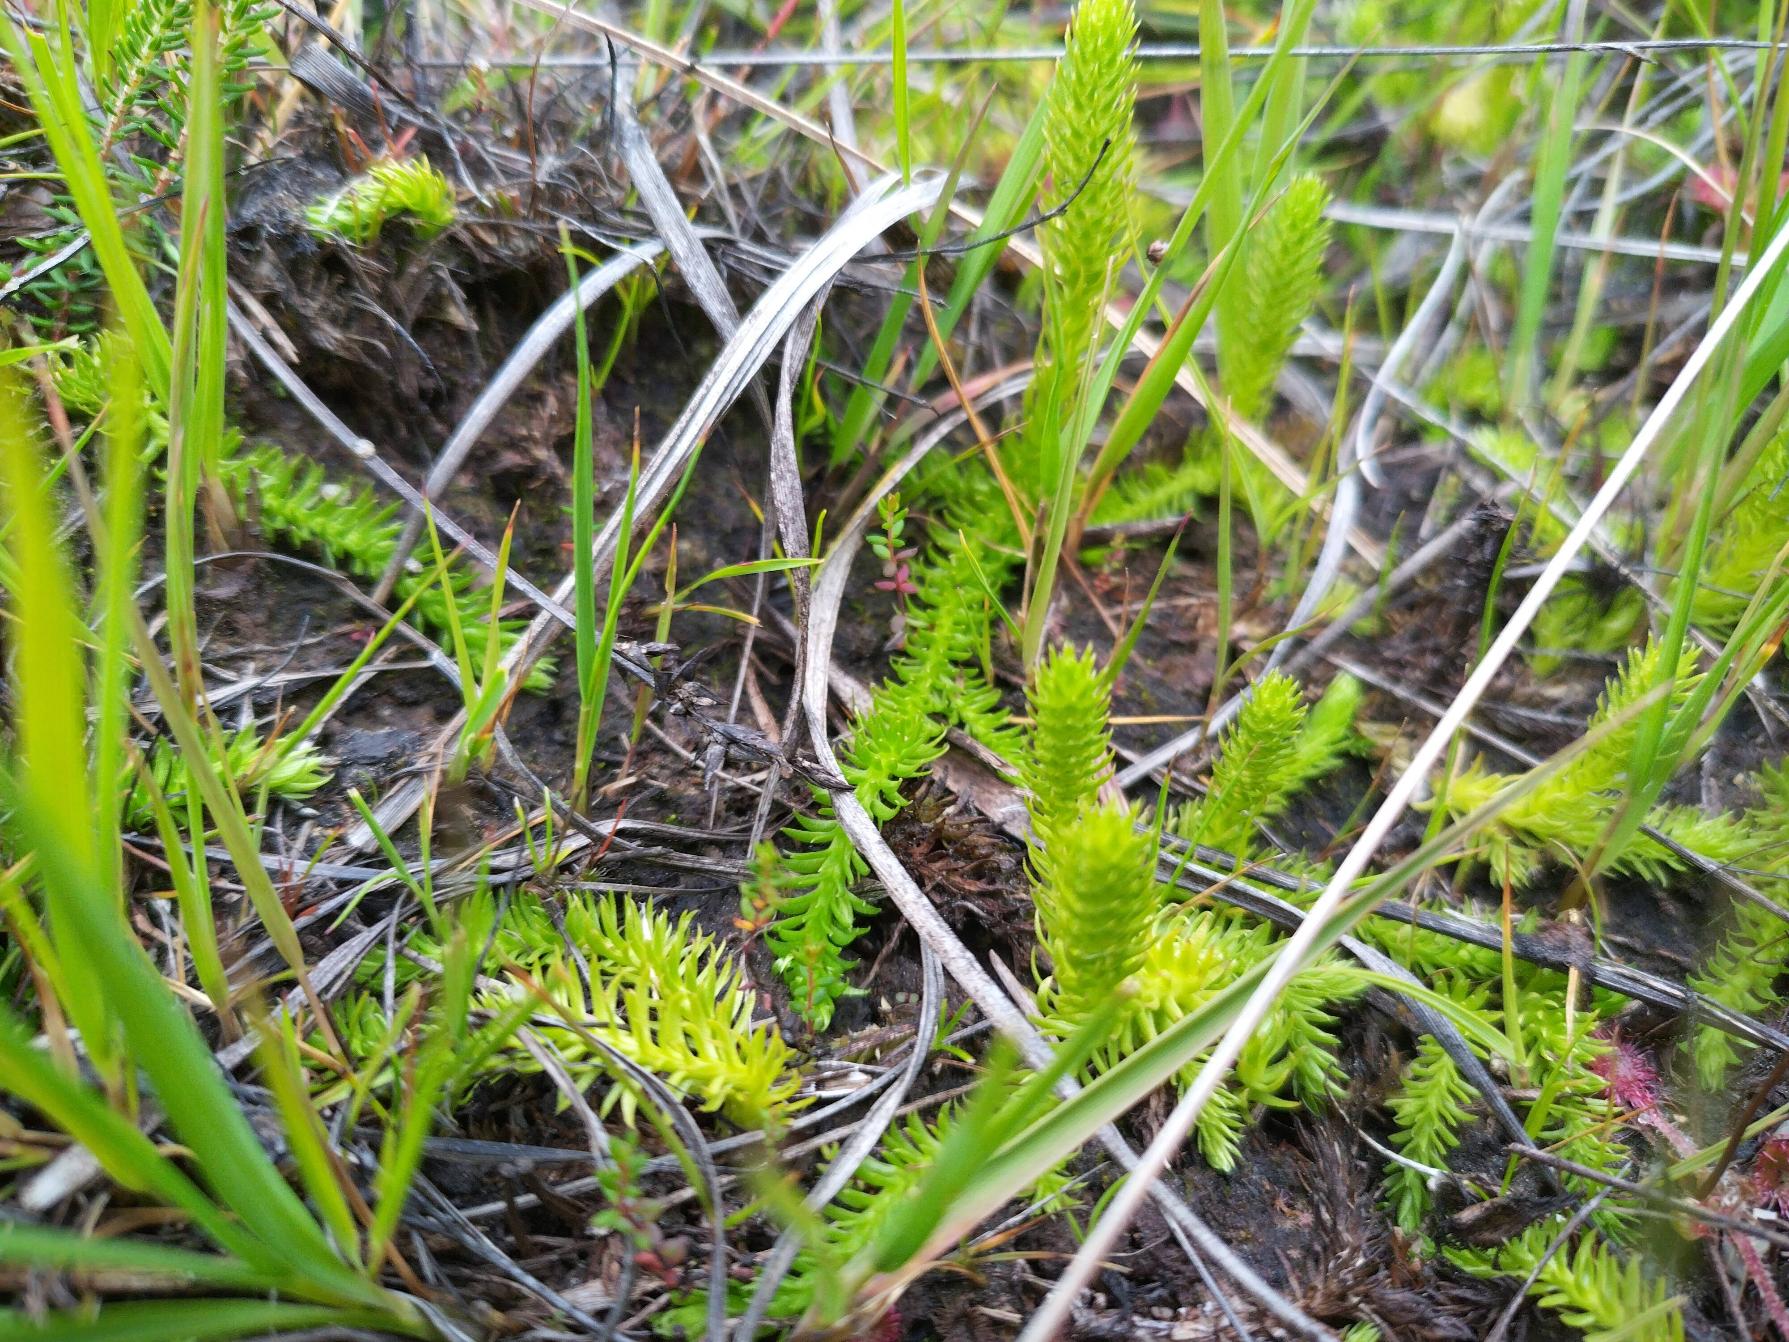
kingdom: Plantae
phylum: Tracheophyta
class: Lycopodiopsida
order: Lycopodiales
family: Lycopodiaceae
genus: Lycopodiella
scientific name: Lycopodiella inundata
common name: Liden ulvefod
